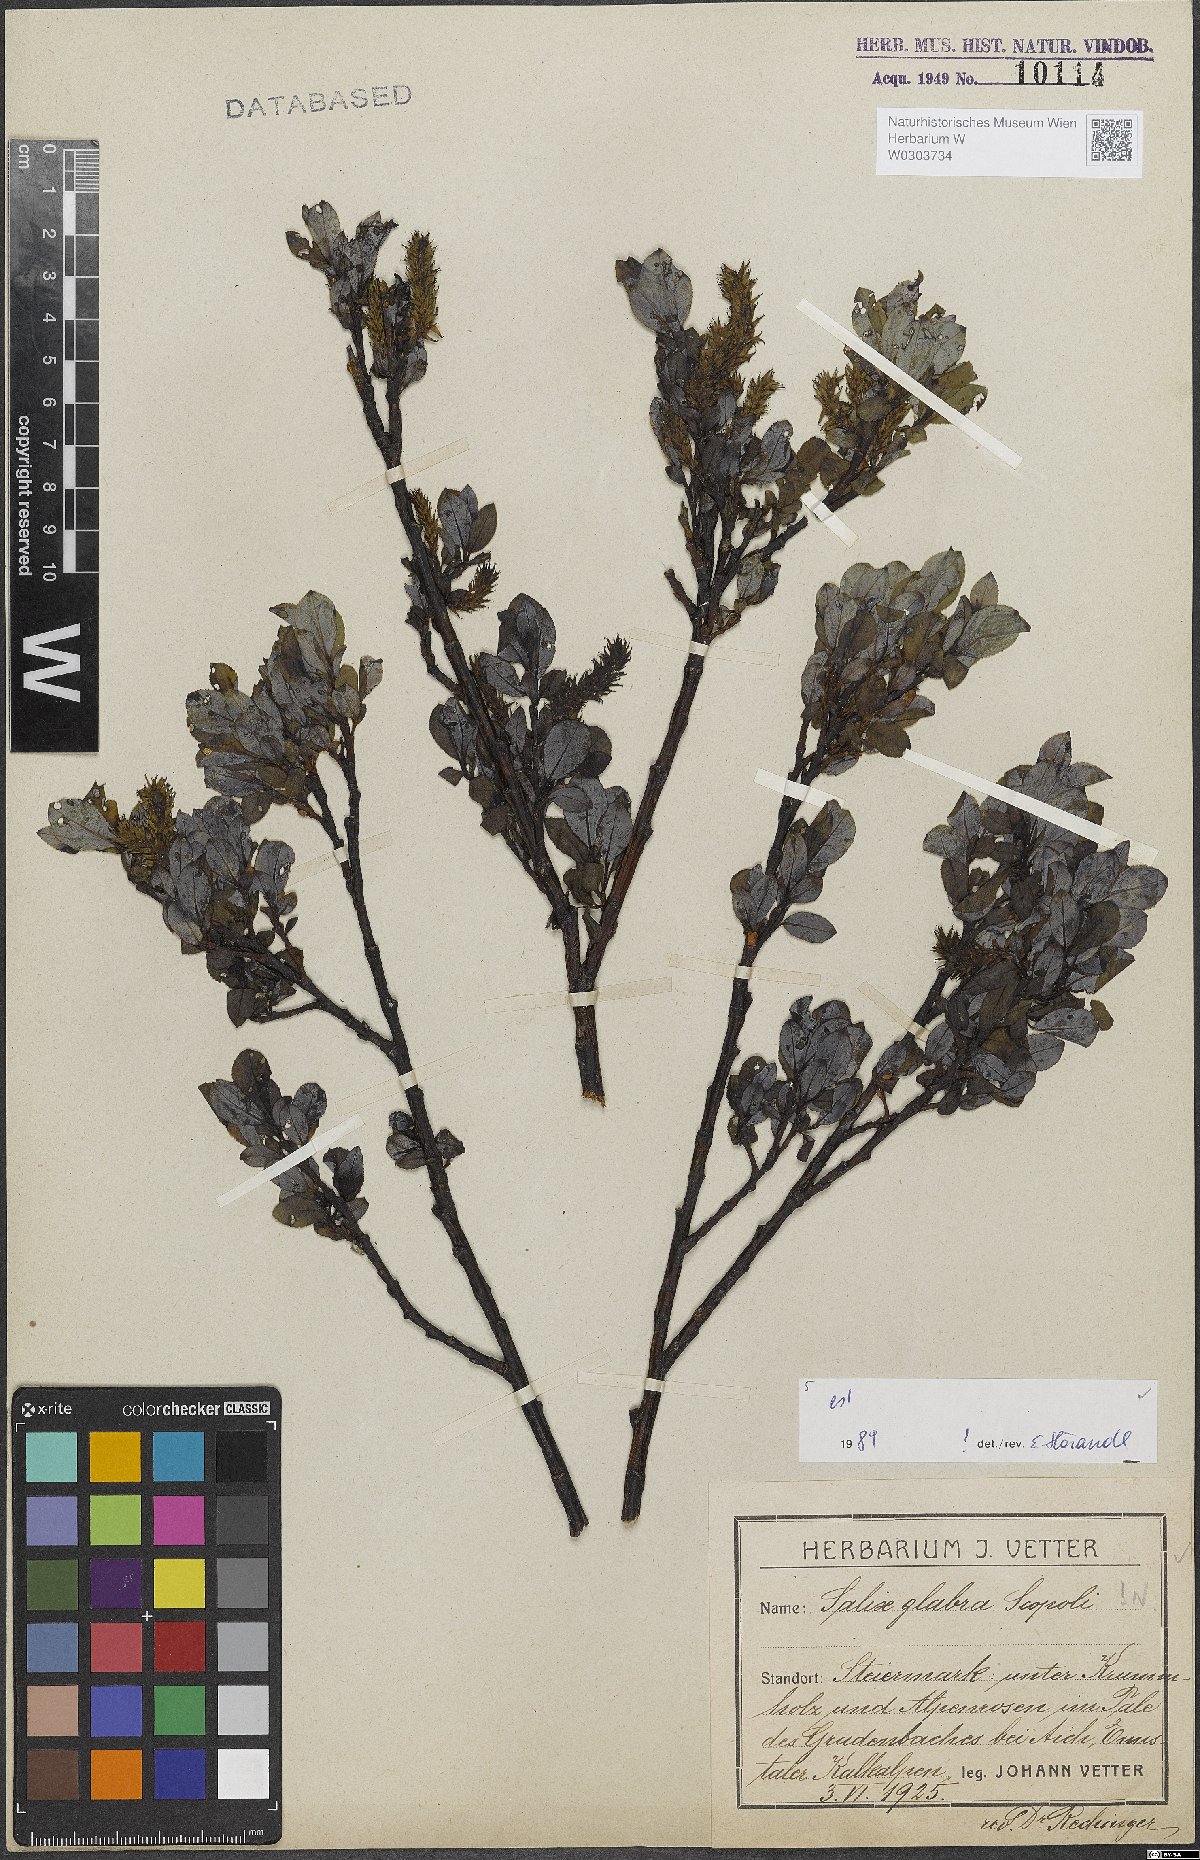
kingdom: Plantae
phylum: Tracheophyta
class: Magnoliopsida
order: Malpighiales
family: Salicaceae
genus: Salix
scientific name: Salix glabra
